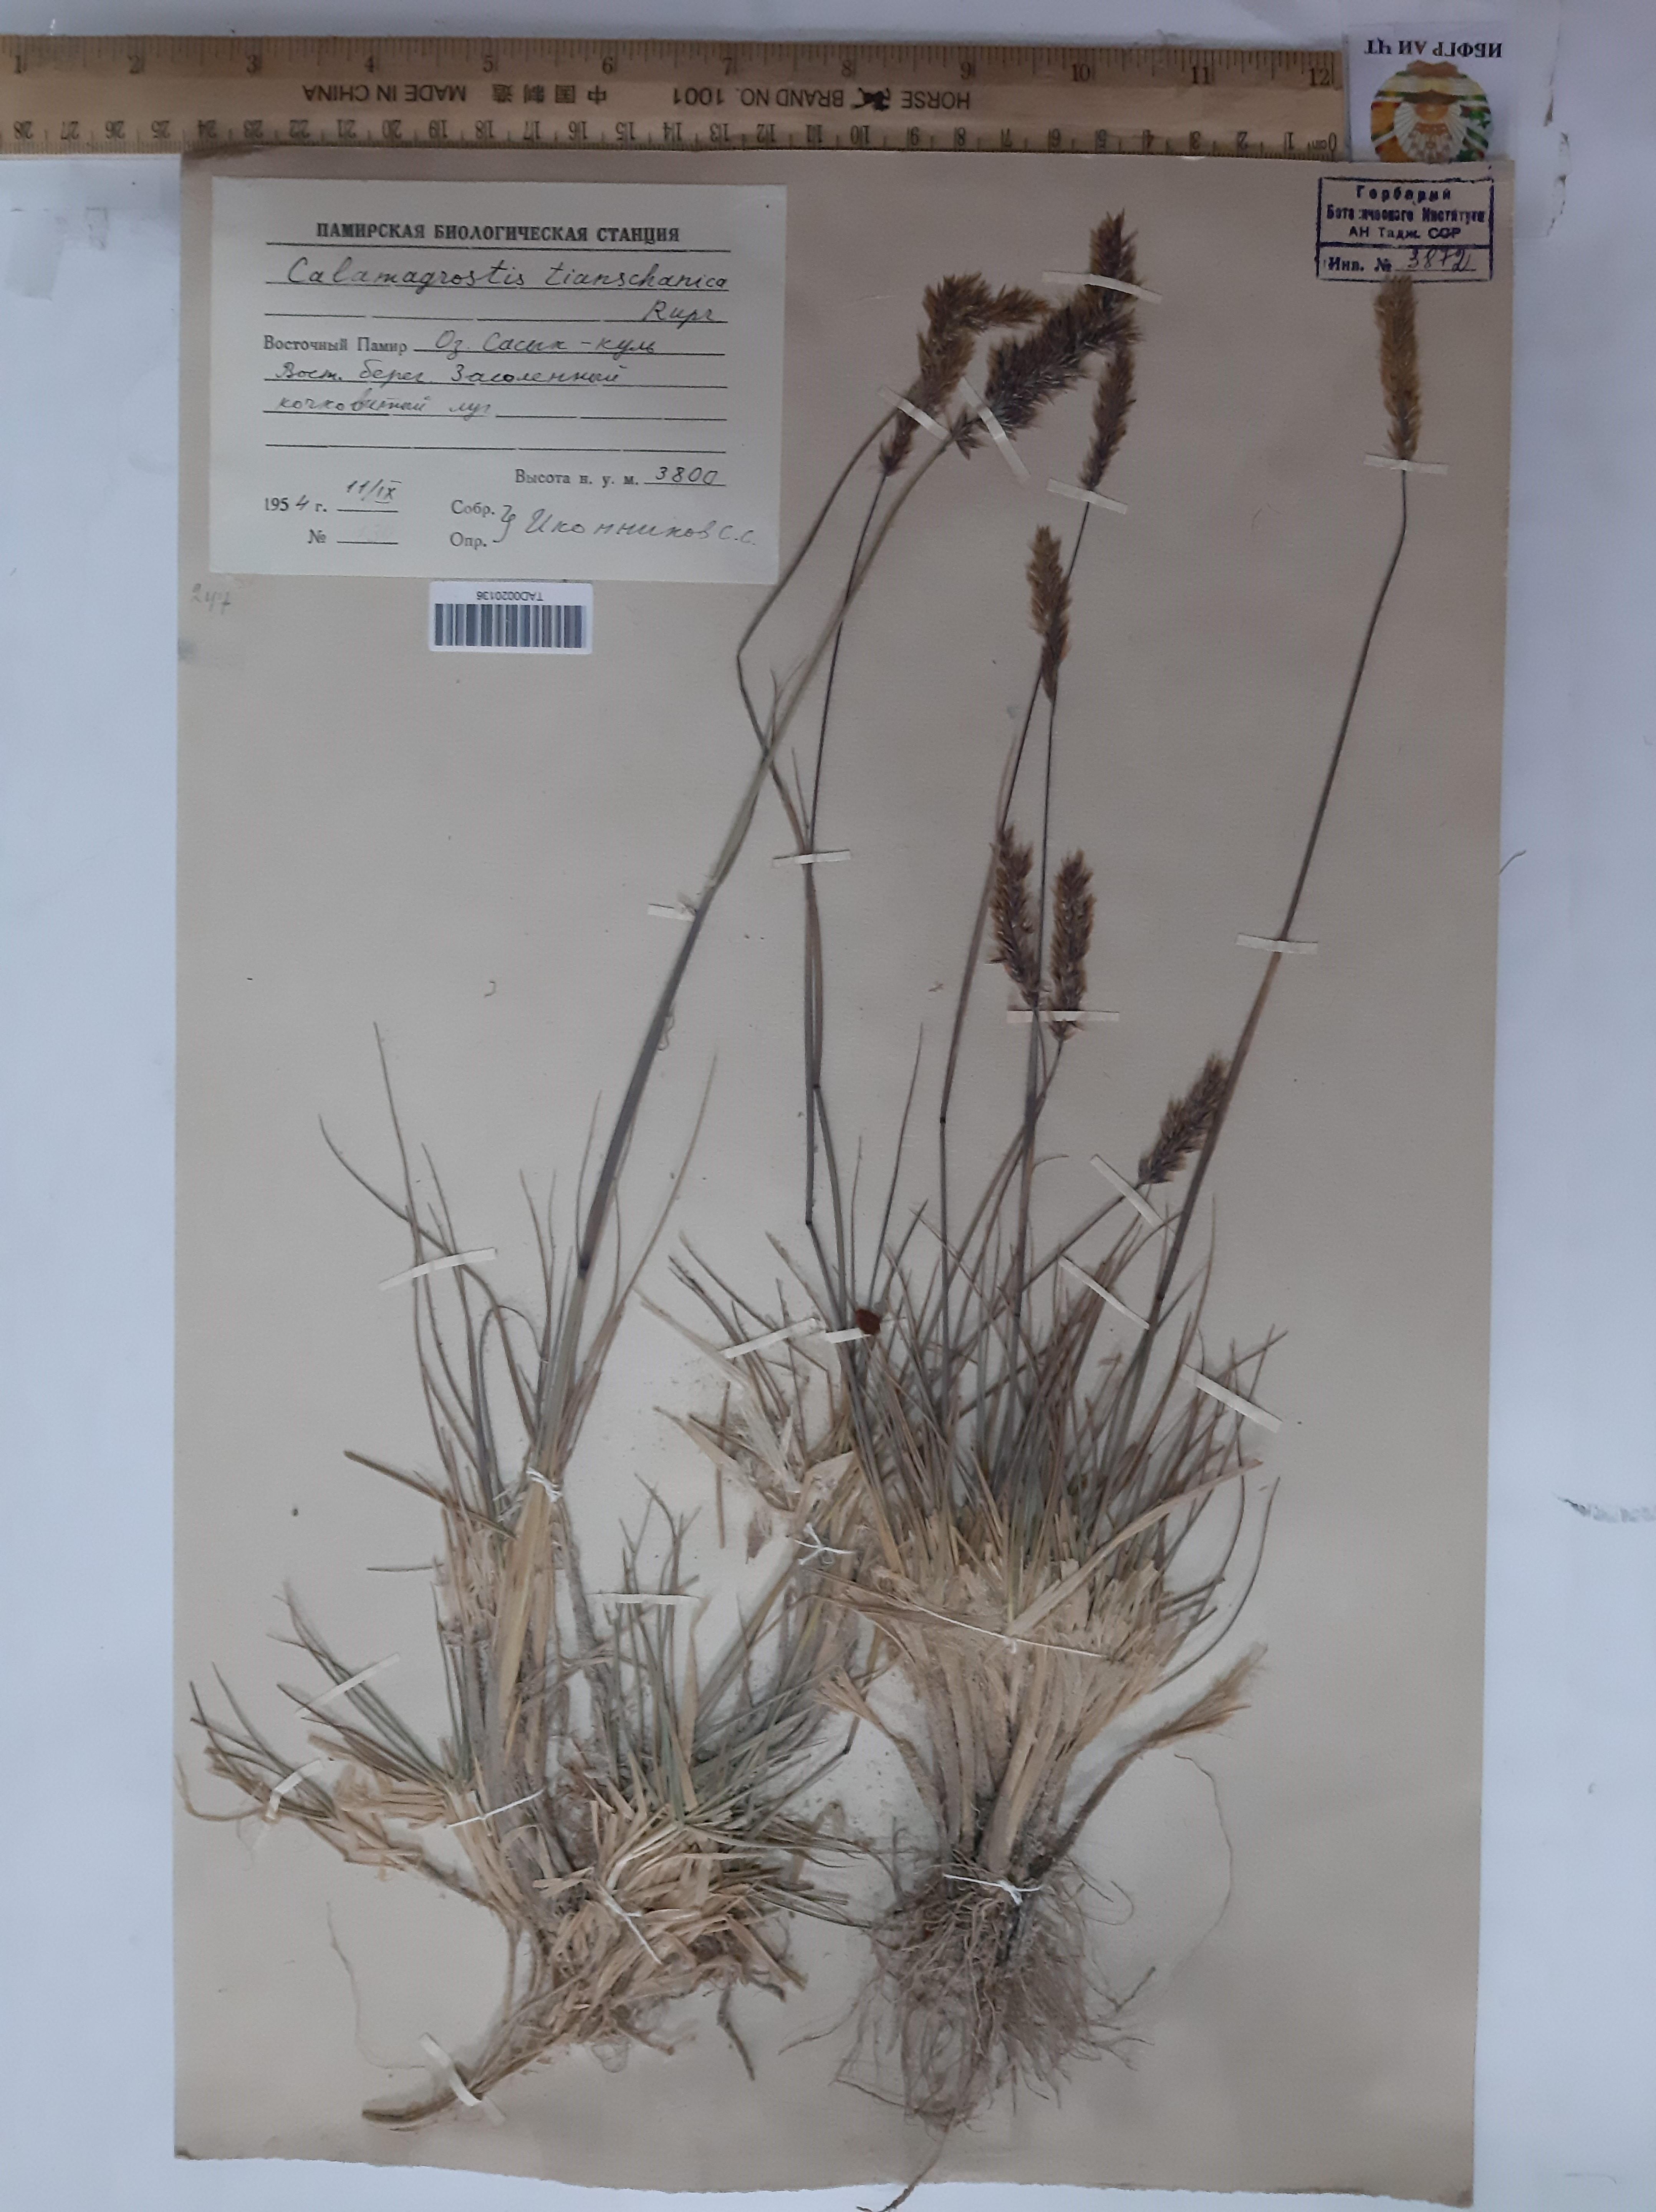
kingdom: Plantae
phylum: Tracheophyta
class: Liliopsida
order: Poales
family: Poaceae
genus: Calamagrostis
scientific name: Calamagrostis tianschanica
